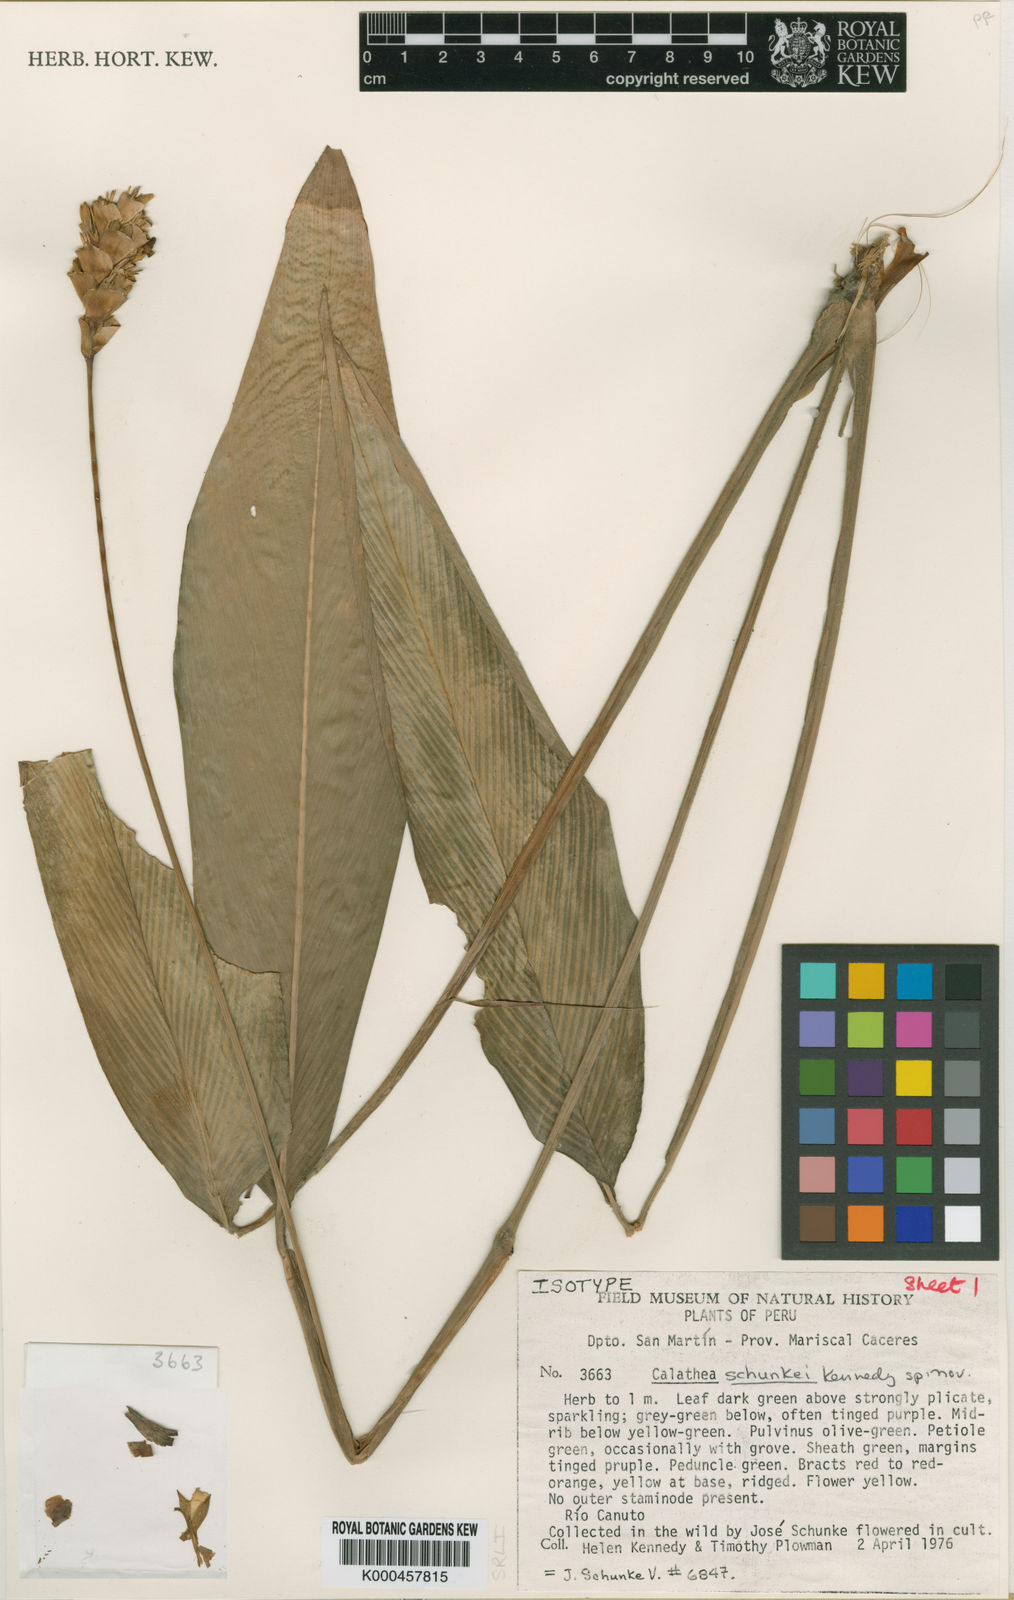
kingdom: Plantae
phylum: Tracheophyta
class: Liliopsida
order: Zingiberales
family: Marantaceae
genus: Goeppertia
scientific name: Goeppertia schunkei
